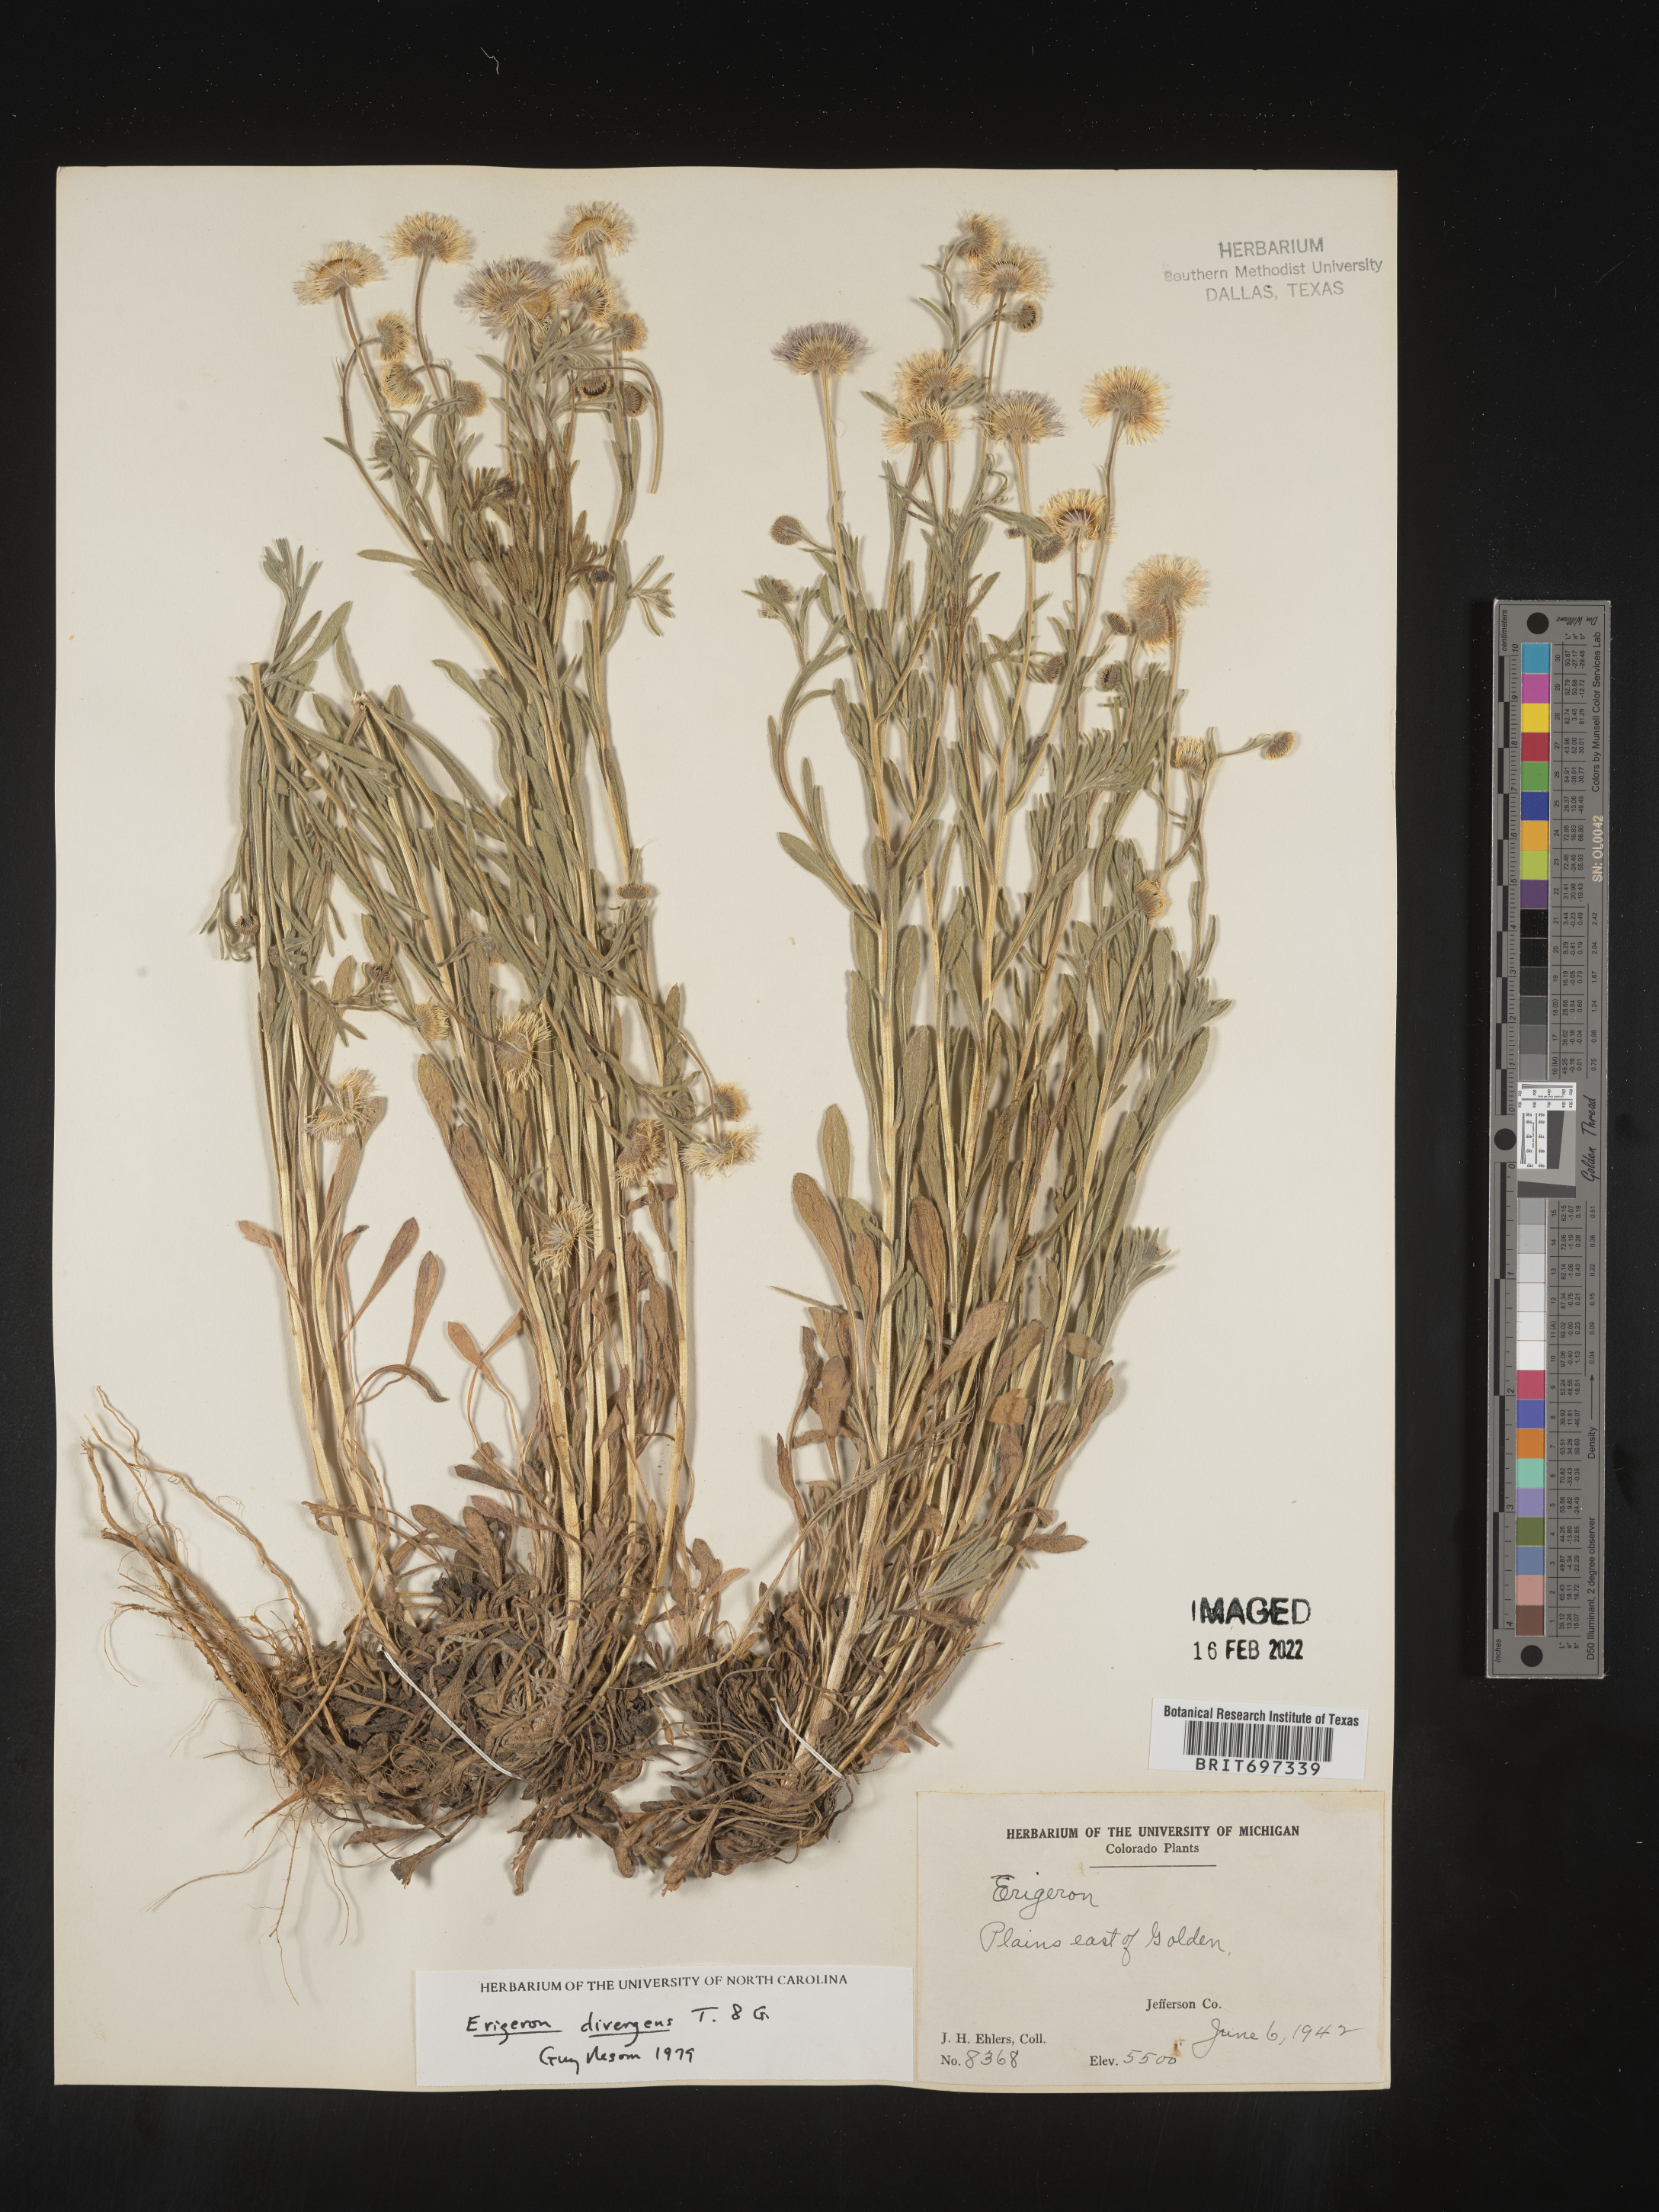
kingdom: Plantae
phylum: Tracheophyta
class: Magnoliopsida
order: Asterales
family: Asteraceae
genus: Erigeron
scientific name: Erigeron divergens
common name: Diffuse fleabane
